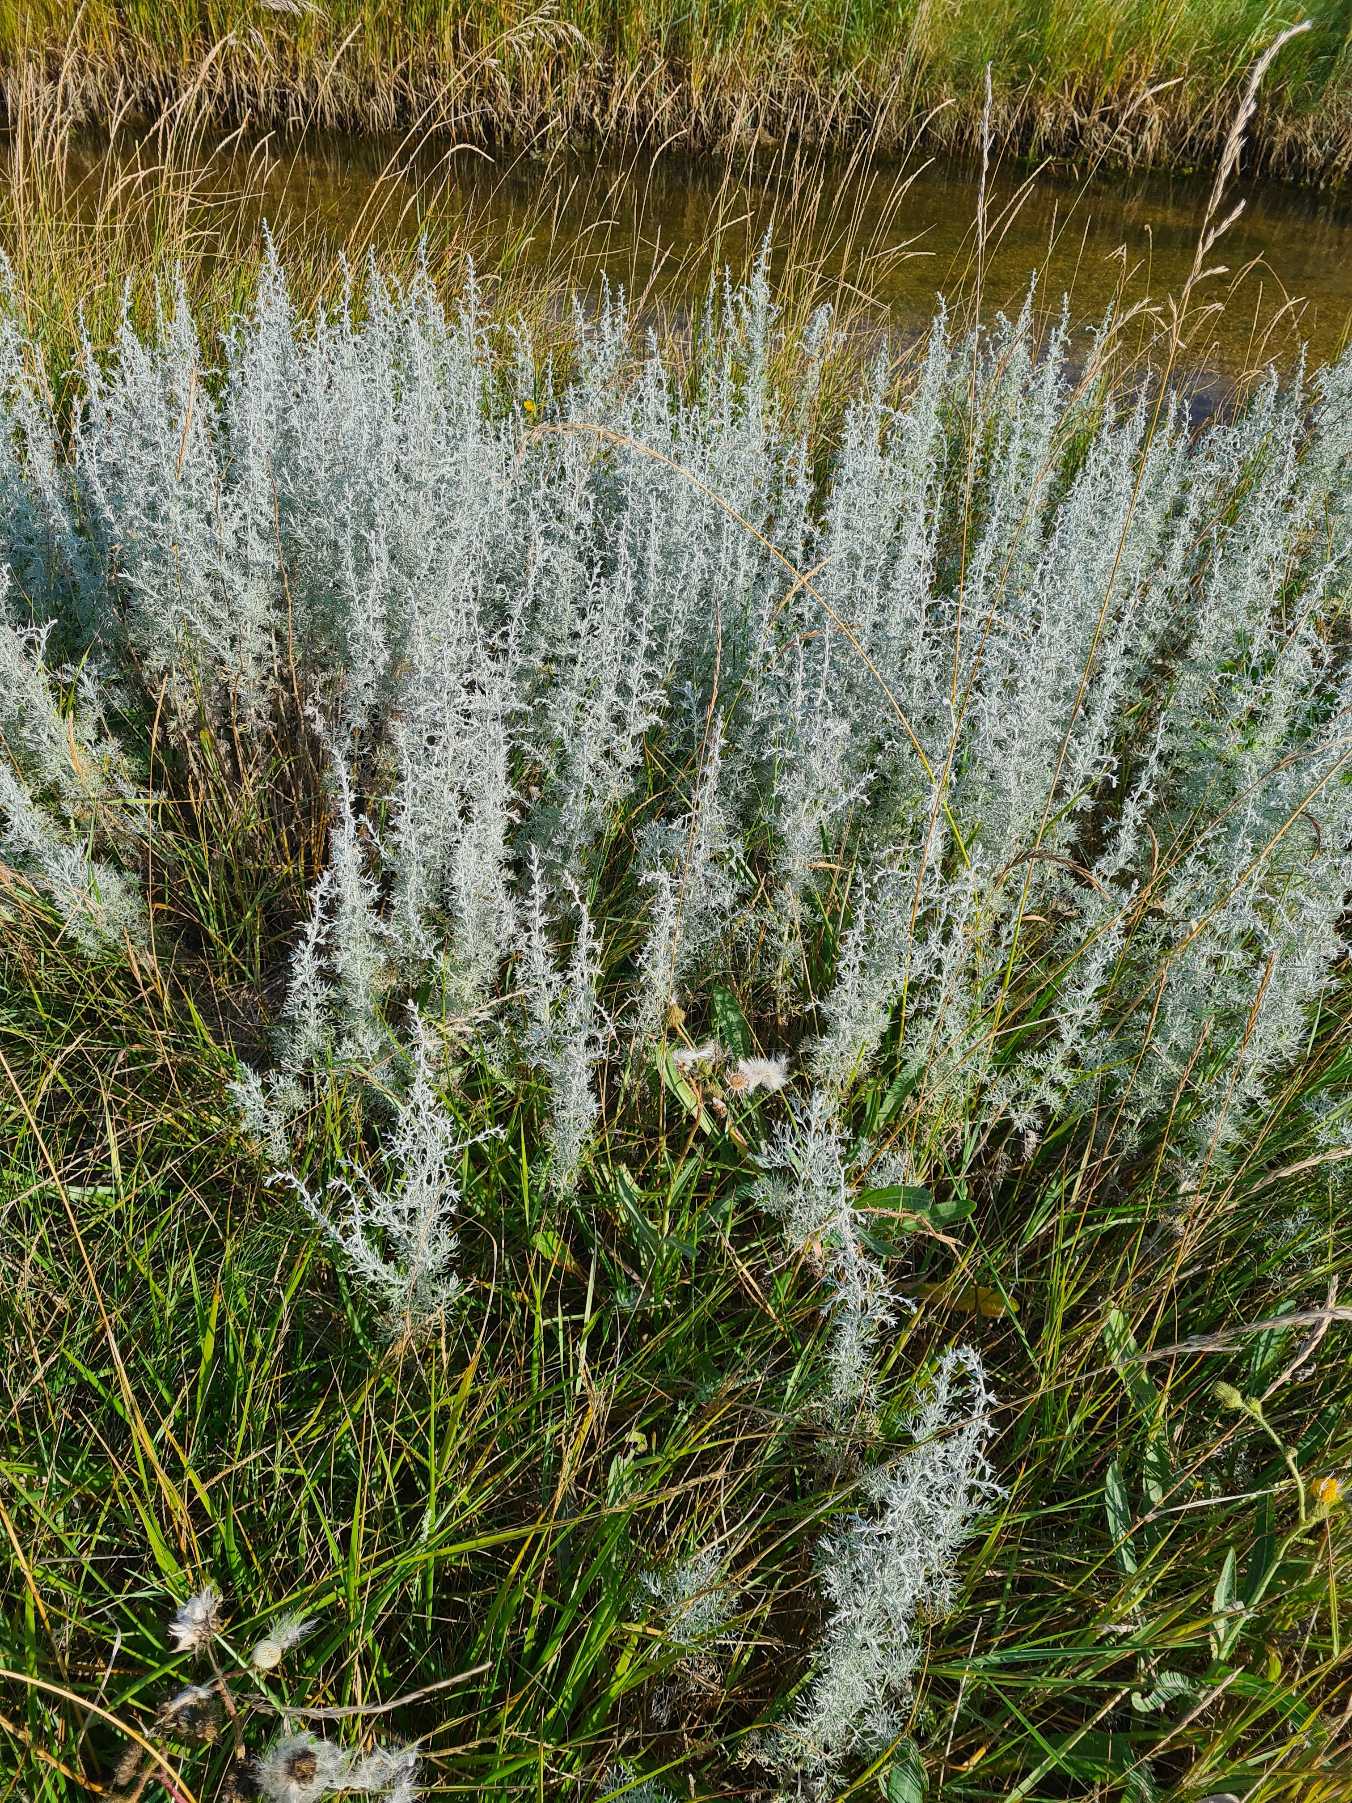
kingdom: Plantae
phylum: Tracheophyta
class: Magnoliopsida
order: Asterales
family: Asteraceae
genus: Artemisia
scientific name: Artemisia maritima
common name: Strandmalurt
